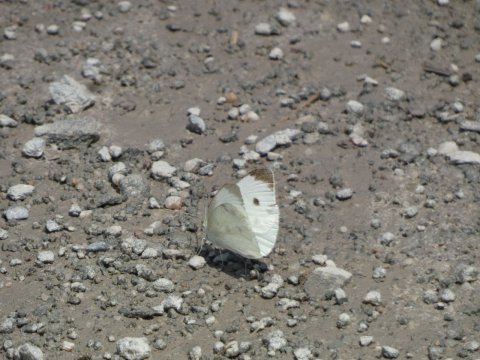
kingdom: Animalia
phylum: Arthropoda
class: Insecta
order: Lepidoptera
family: Pieridae
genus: Pieris
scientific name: Pieris rapae
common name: Cabbage White
